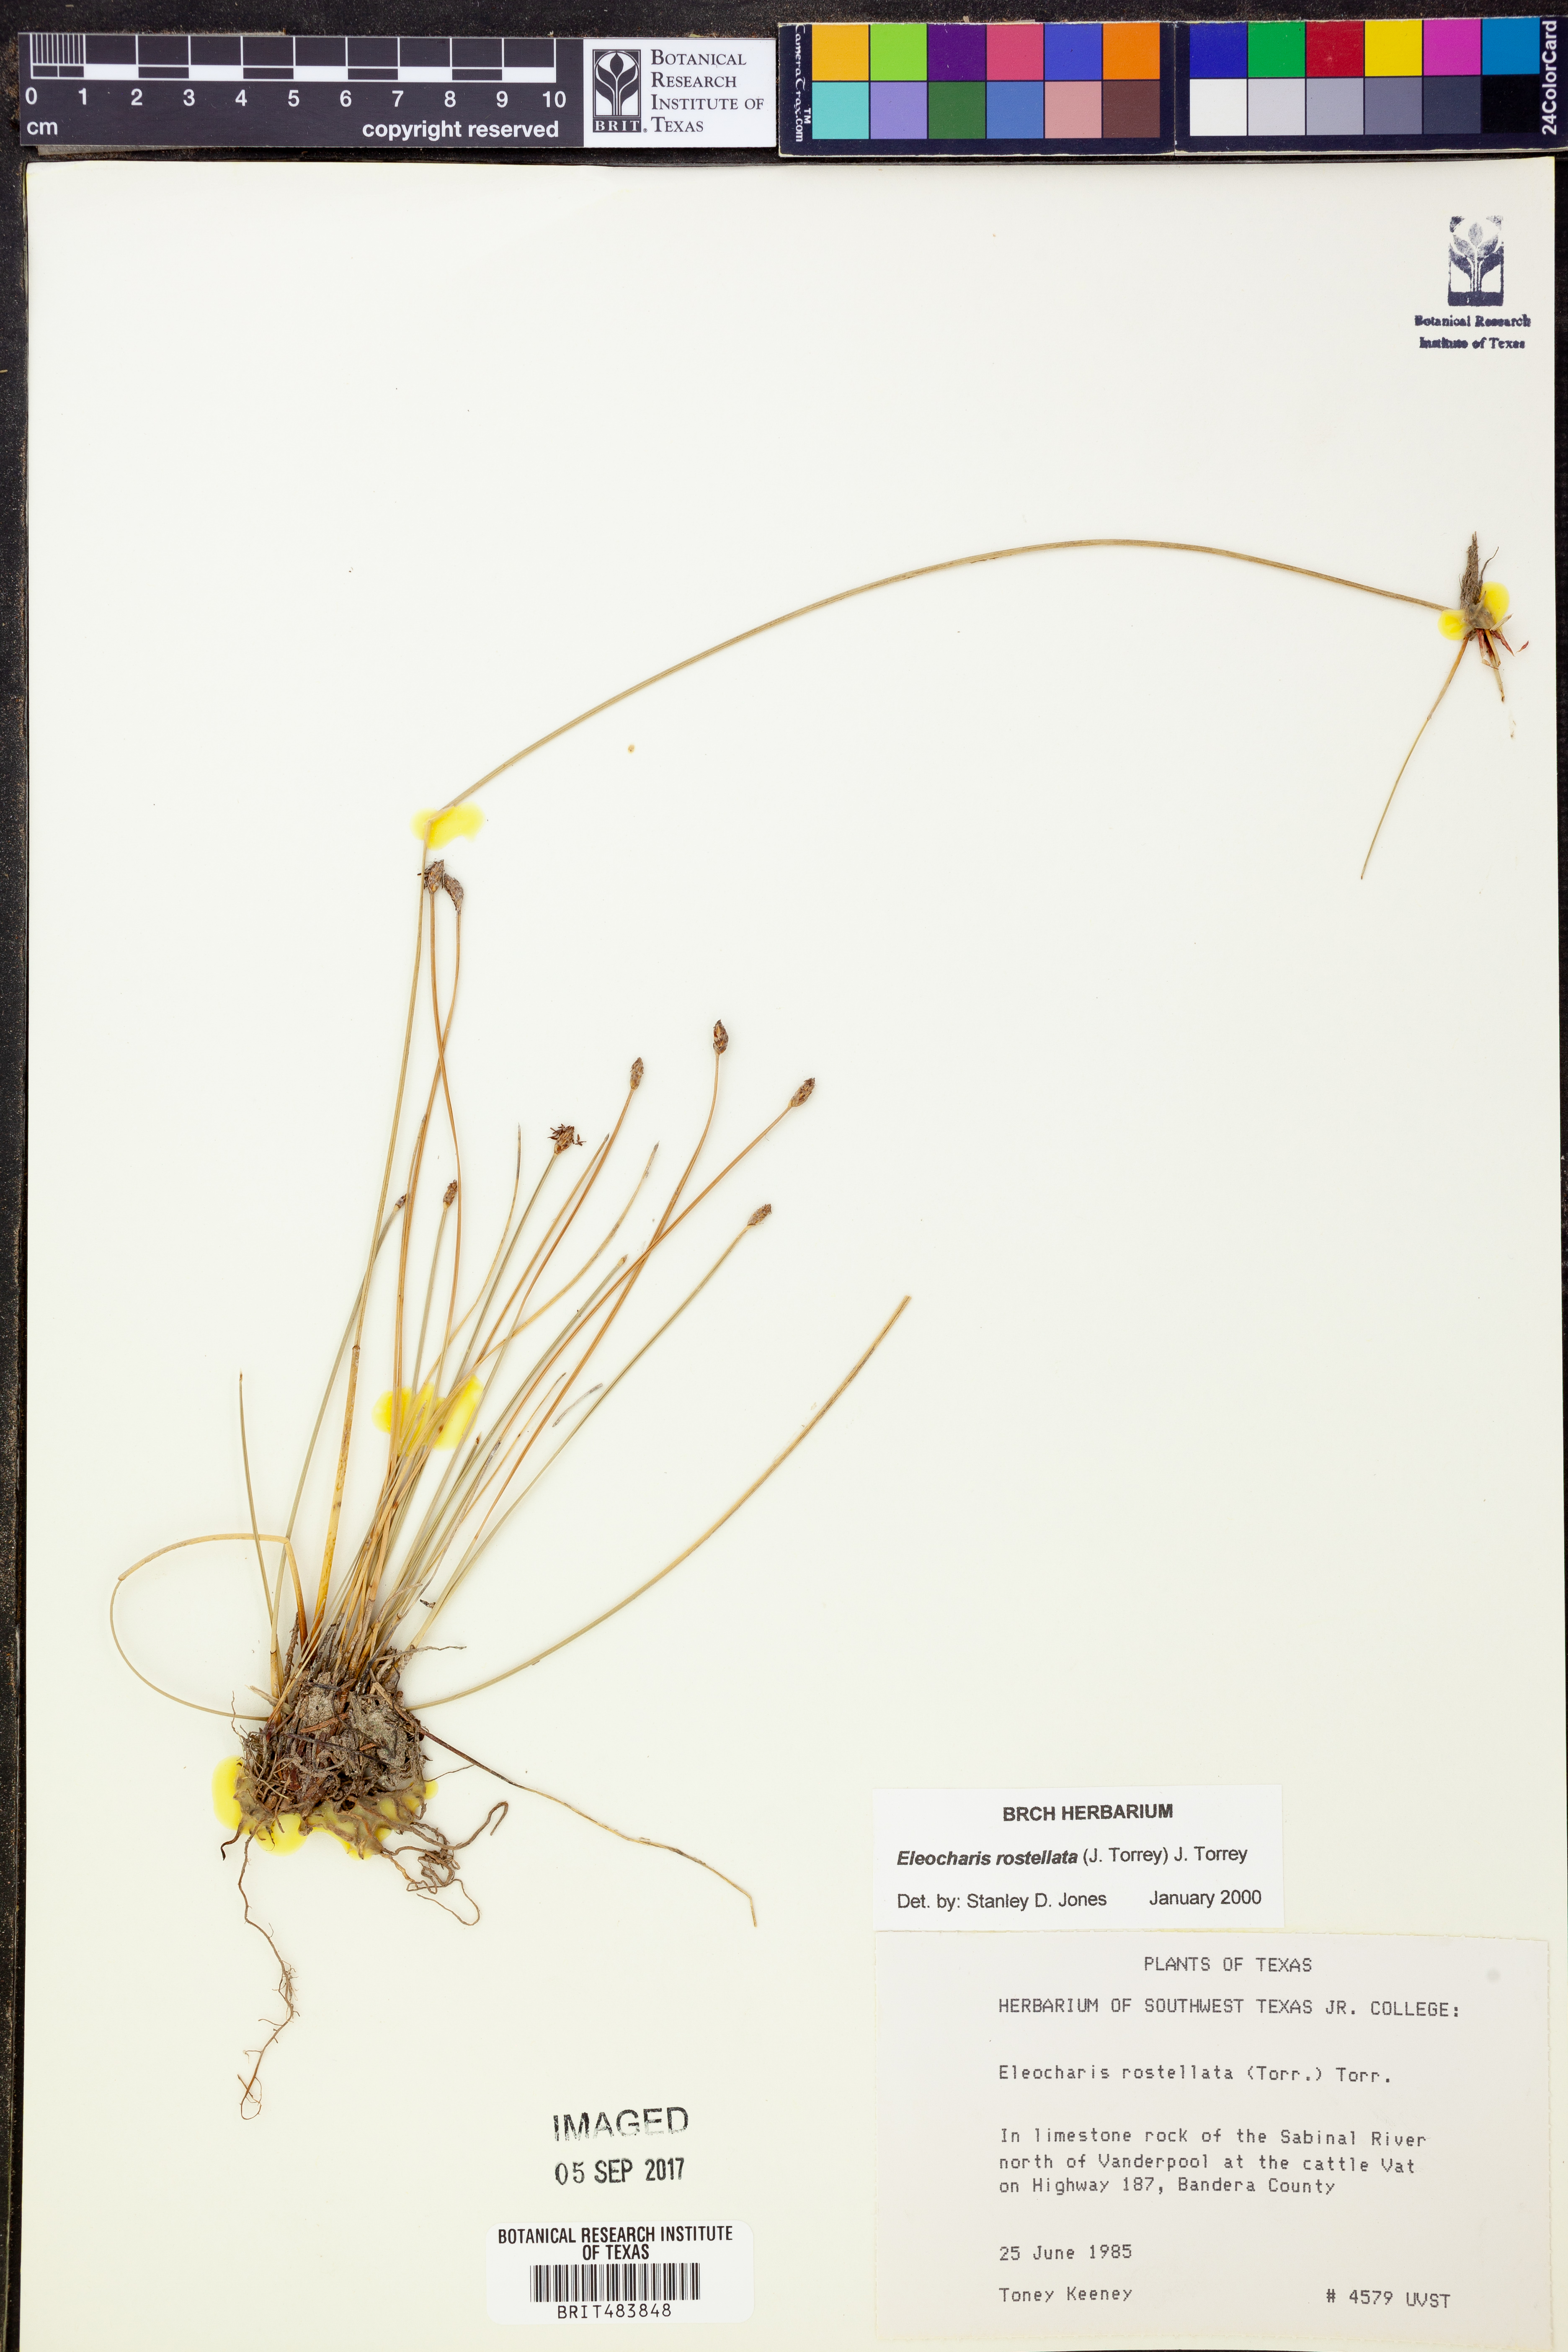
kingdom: Plantae
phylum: Tracheophyta
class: Liliopsida
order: Poales
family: Cyperaceae
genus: Eleocharis
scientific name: Eleocharis rostellata
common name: Walking sedge
